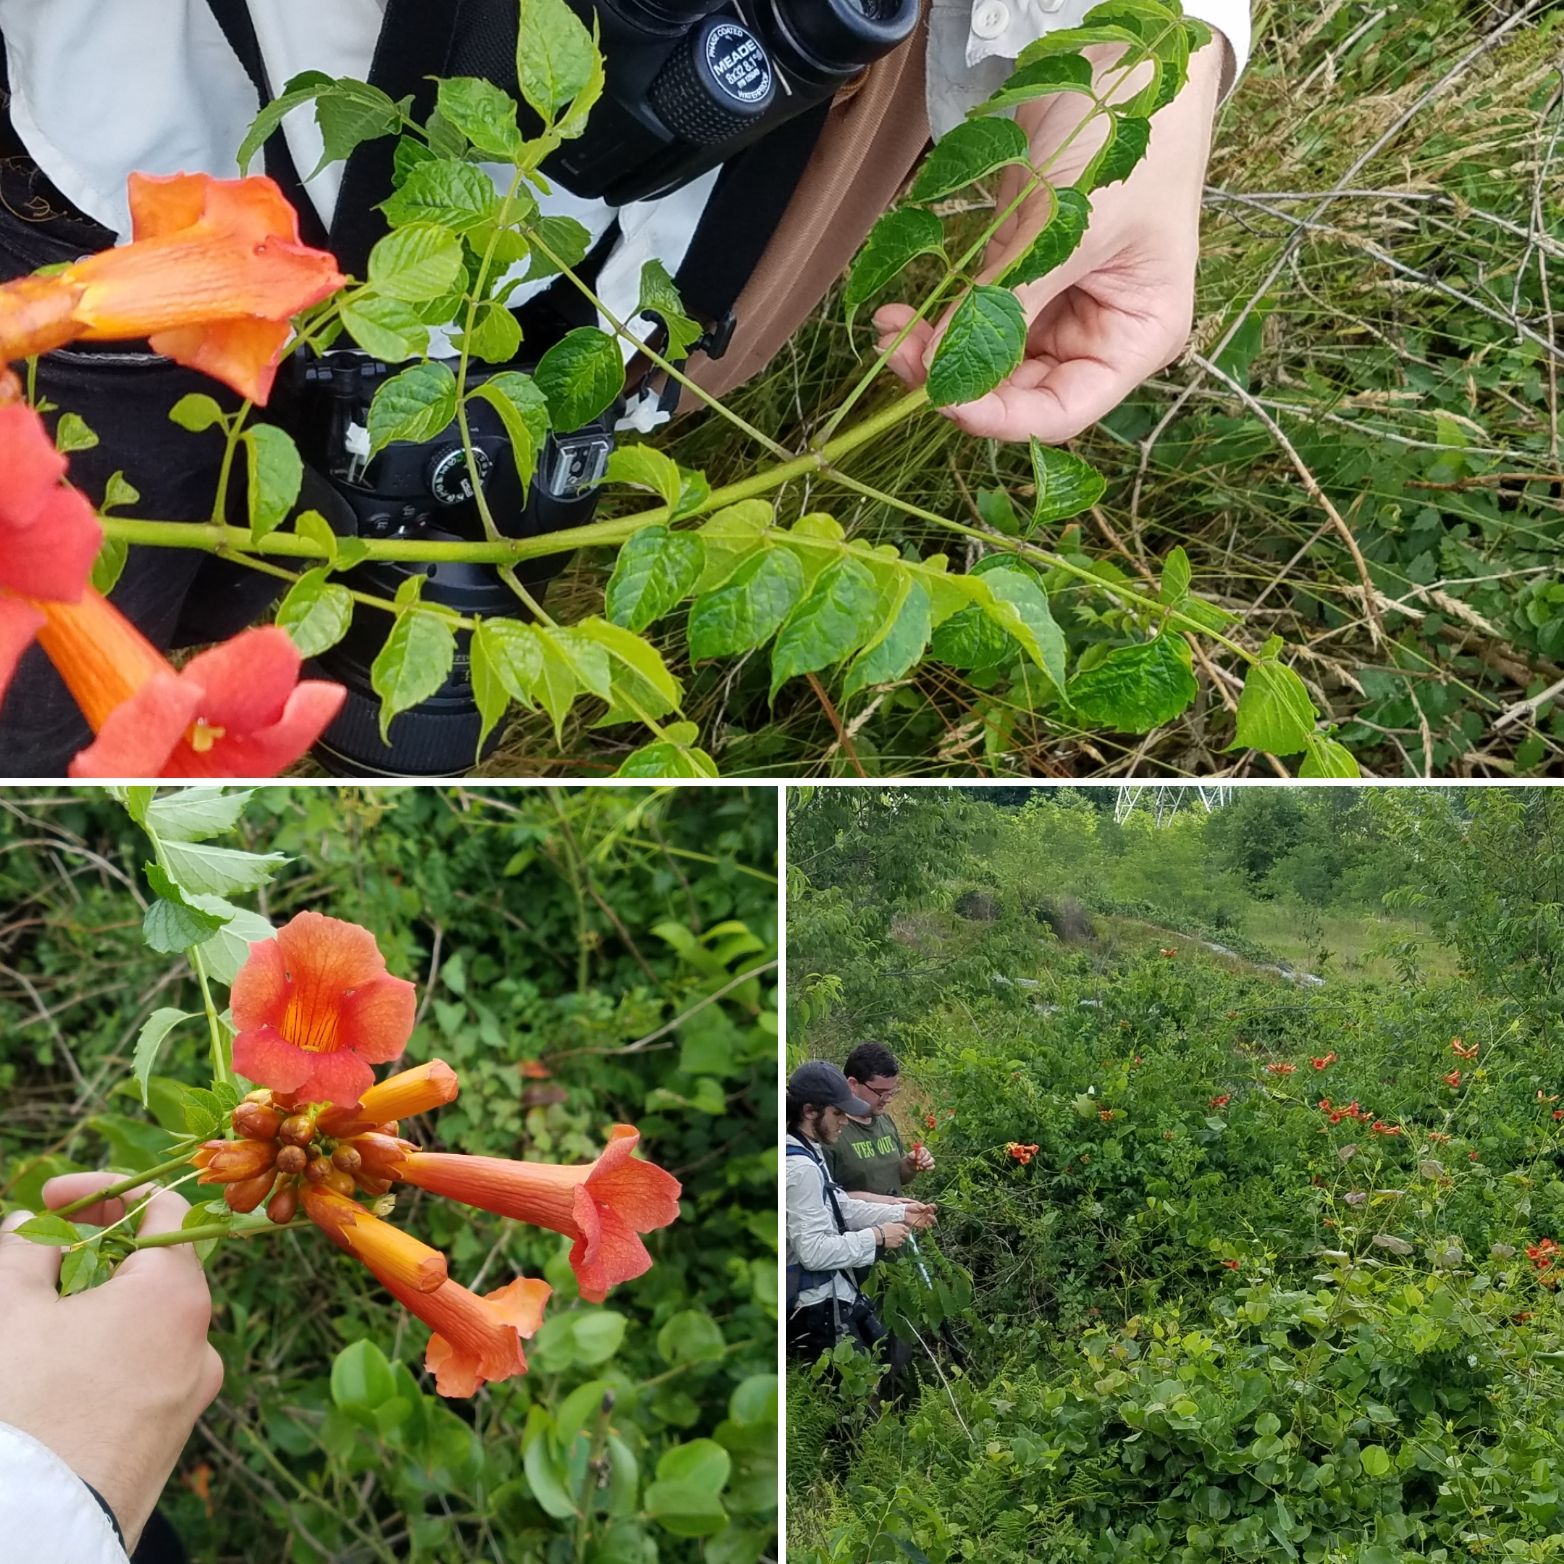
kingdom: Plantae
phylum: Tracheophyta
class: Magnoliopsida
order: Lamiales
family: Bignoniaceae
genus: Campsis
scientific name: Campsis radicans
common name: Trumpet Creeper
